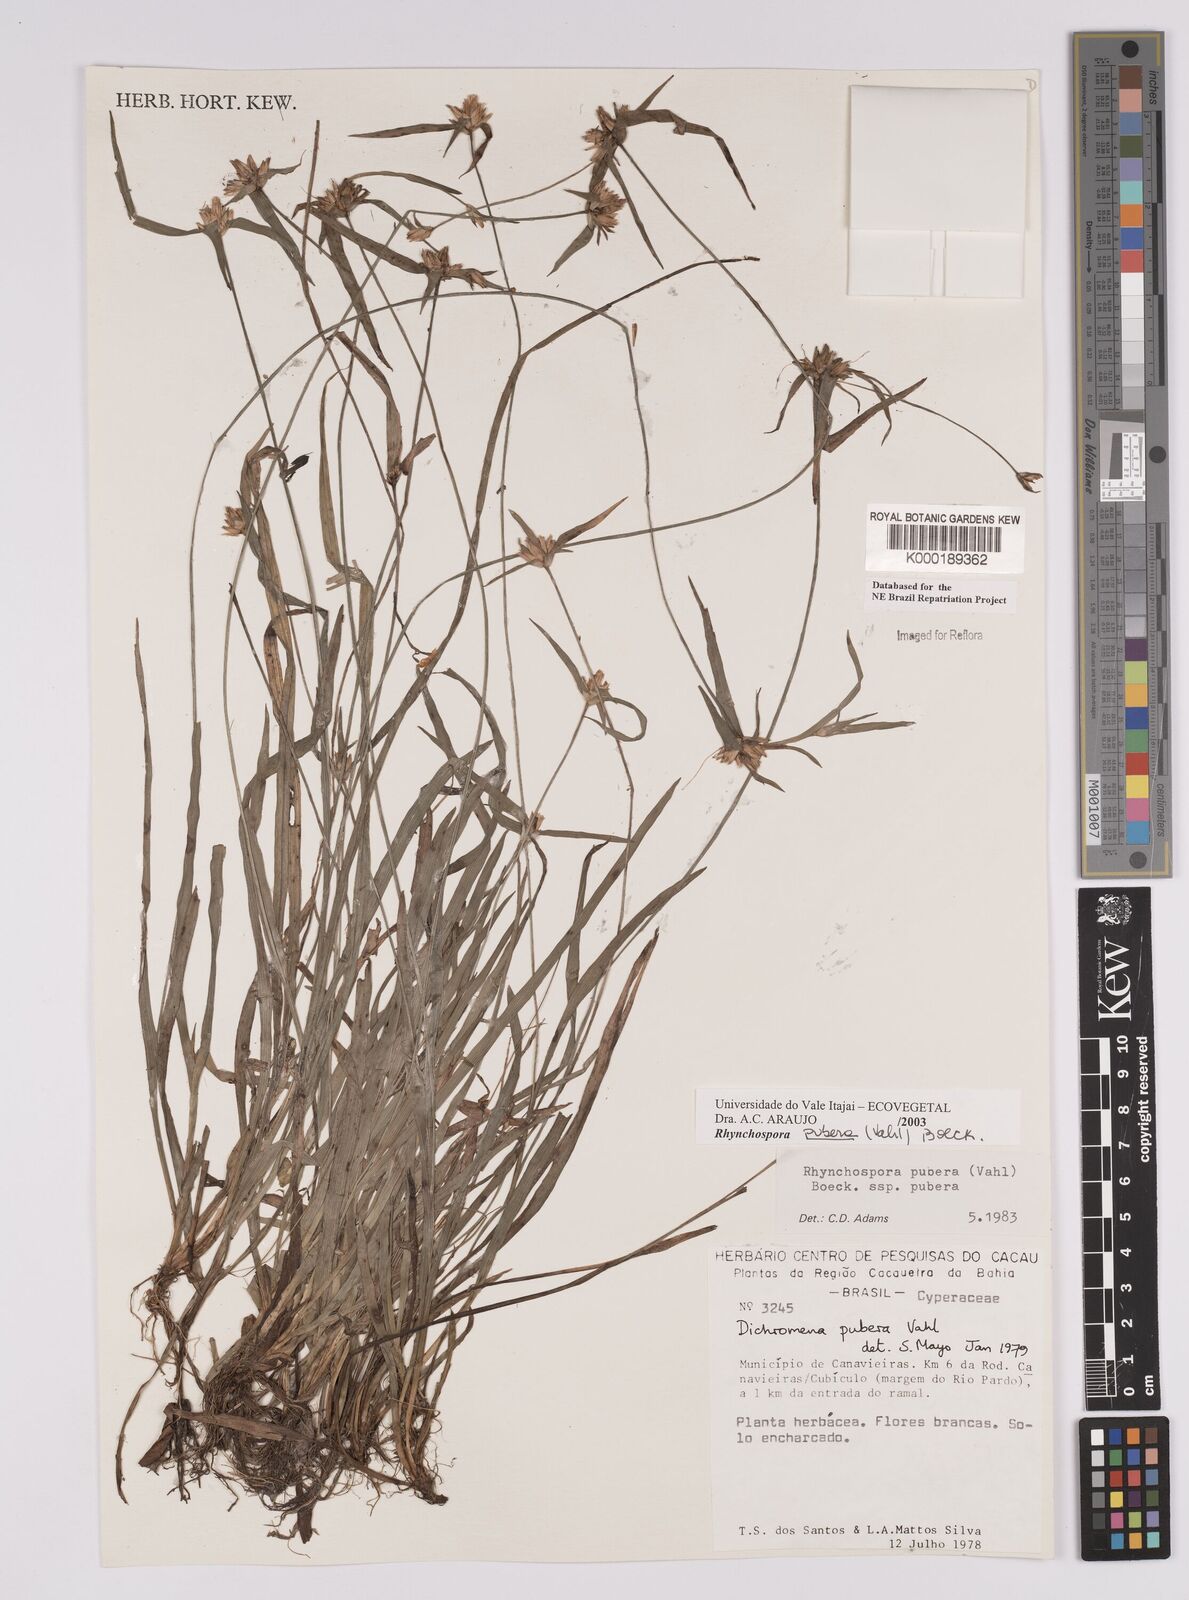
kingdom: Plantae
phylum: Tracheophyta
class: Liliopsida
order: Poales
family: Cyperaceae
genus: Rhynchospora
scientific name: Rhynchospora pubera
